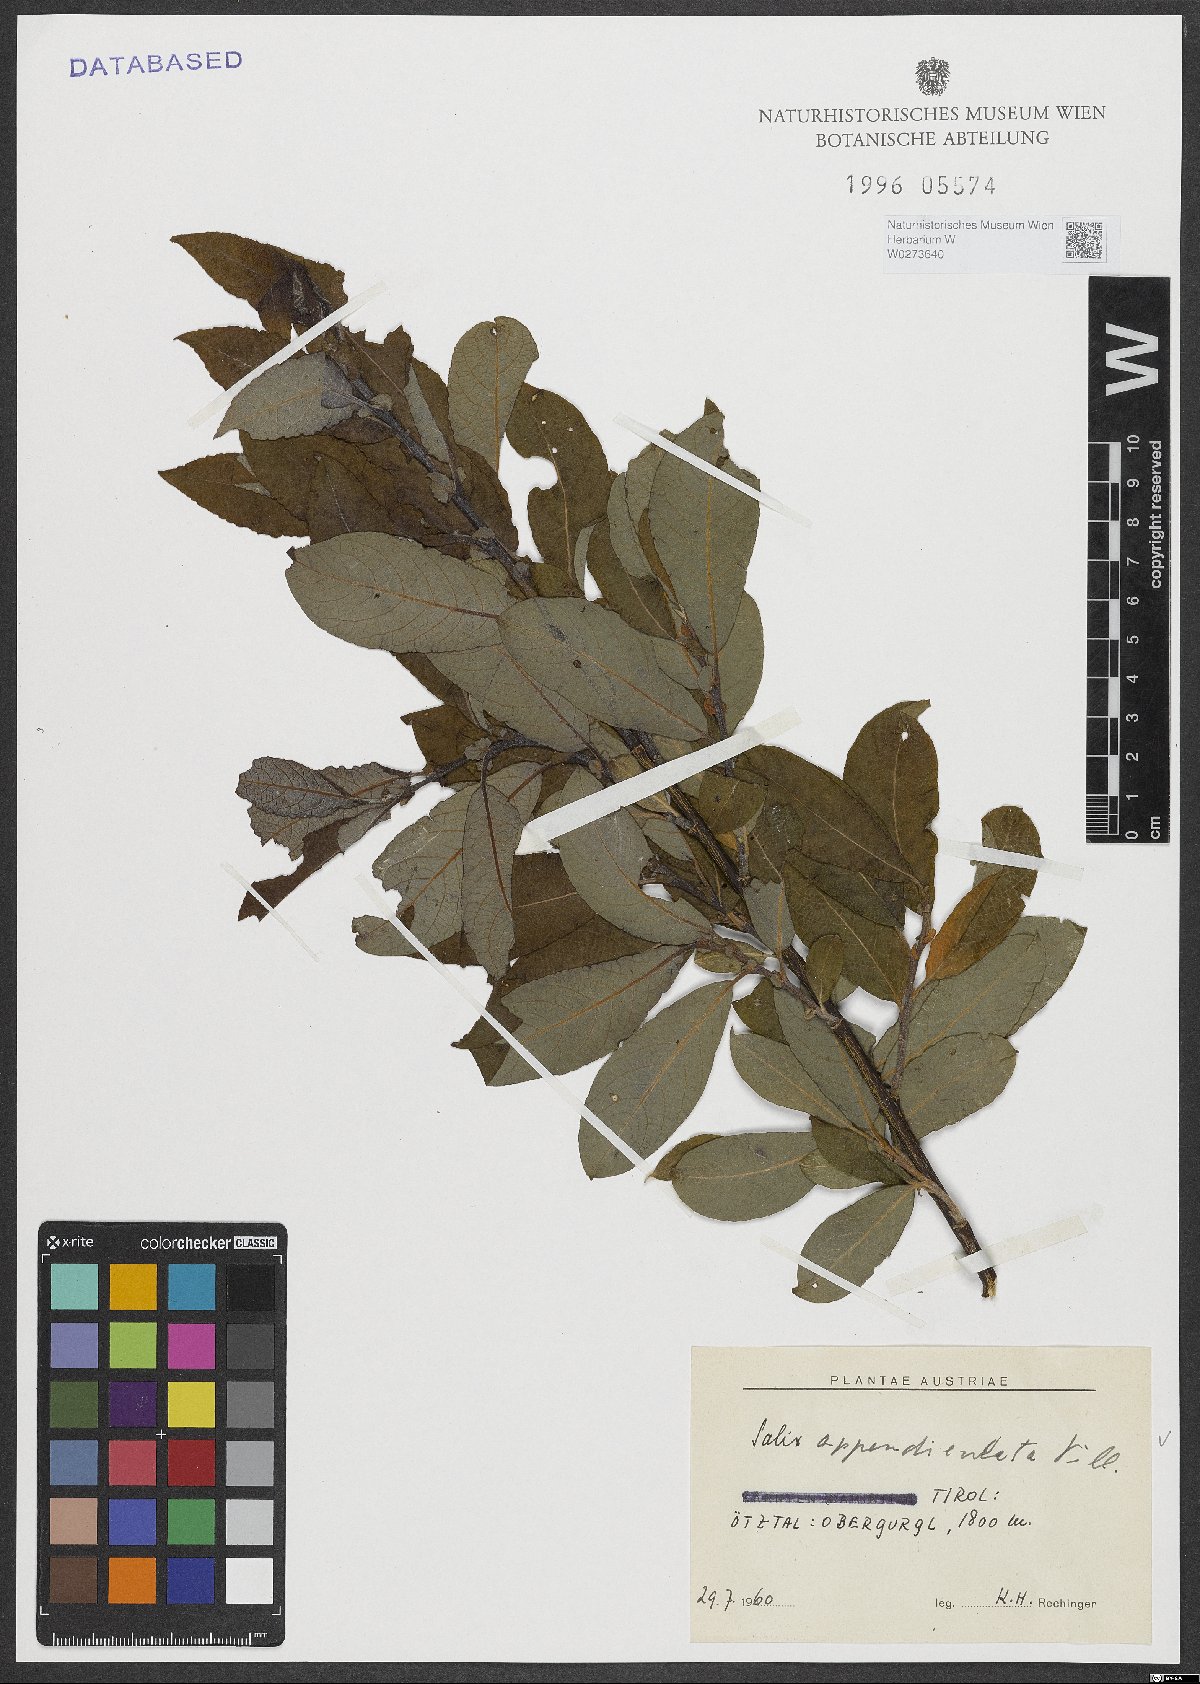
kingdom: Plantae
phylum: Tracheophyta
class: Magnoliopsida
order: Malpighiales
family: Salicaceae
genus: Salix
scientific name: Salix appendiculata
